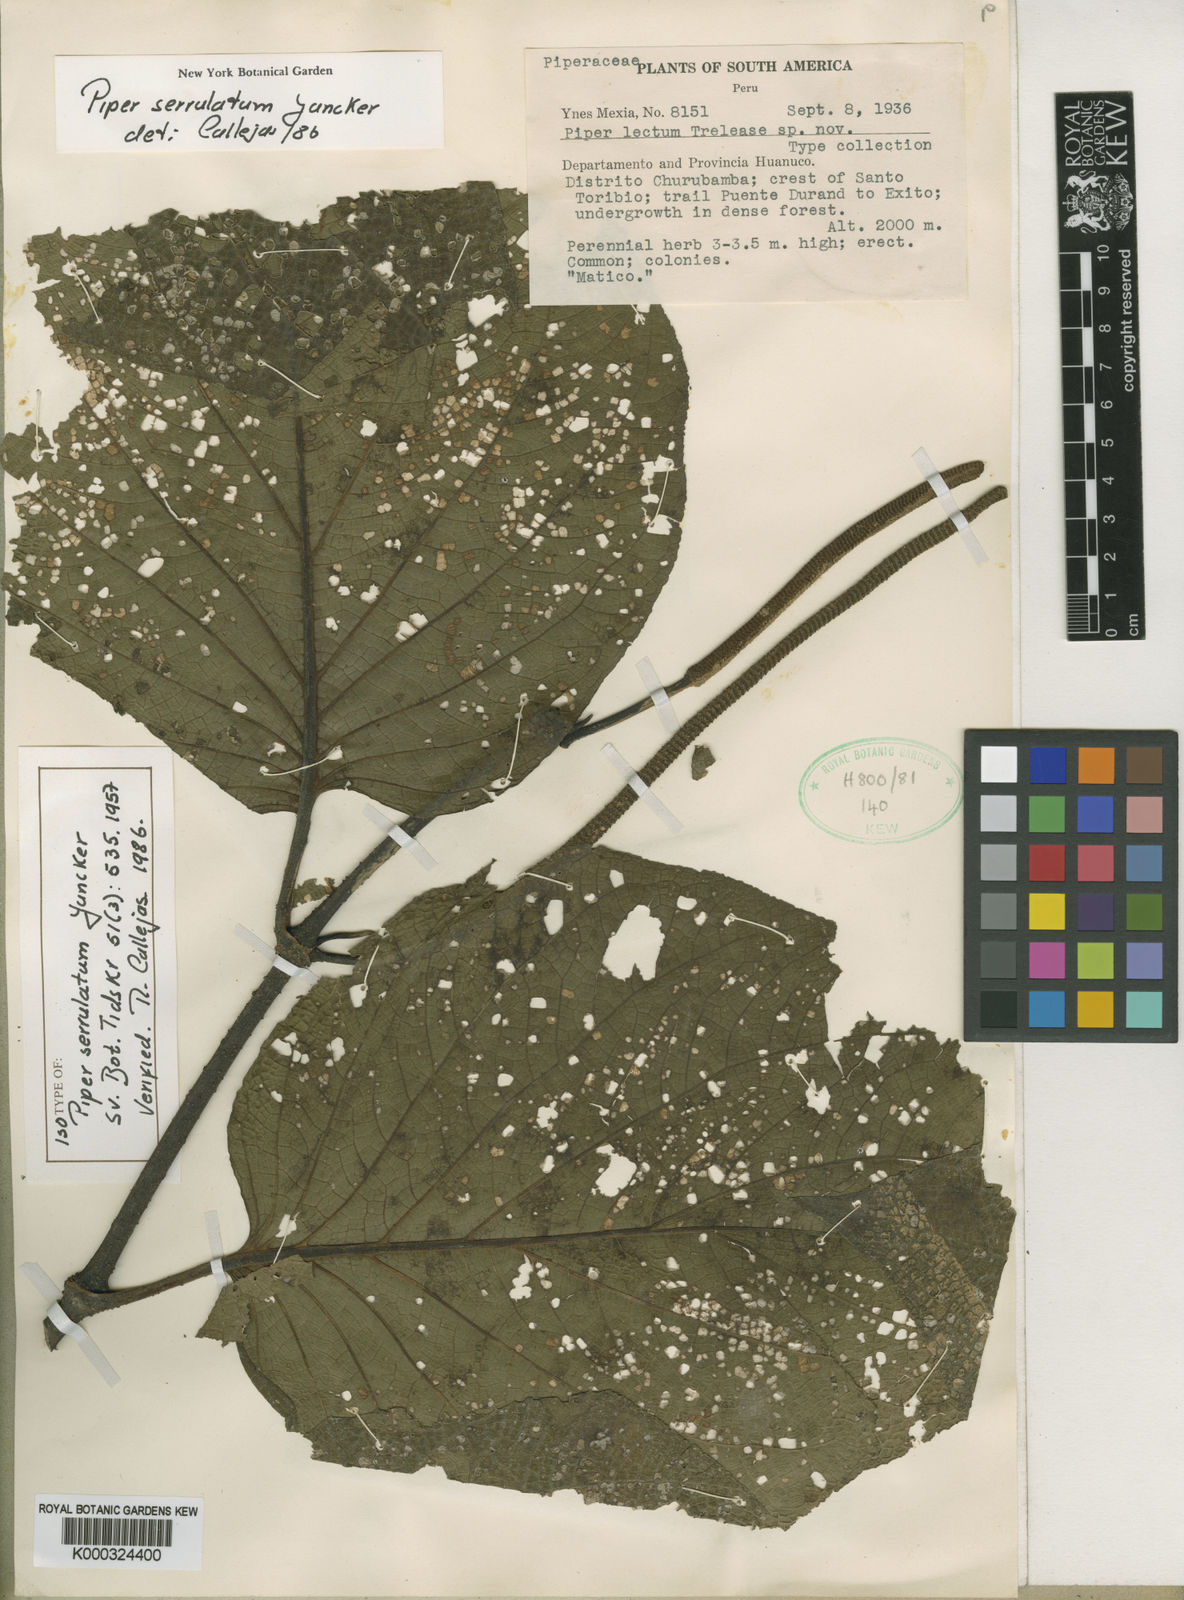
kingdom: Plantae
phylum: Tracheophyta
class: Magnoliopsida
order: Piperales
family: Piperaceae
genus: Piper
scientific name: Piper serrulatum
